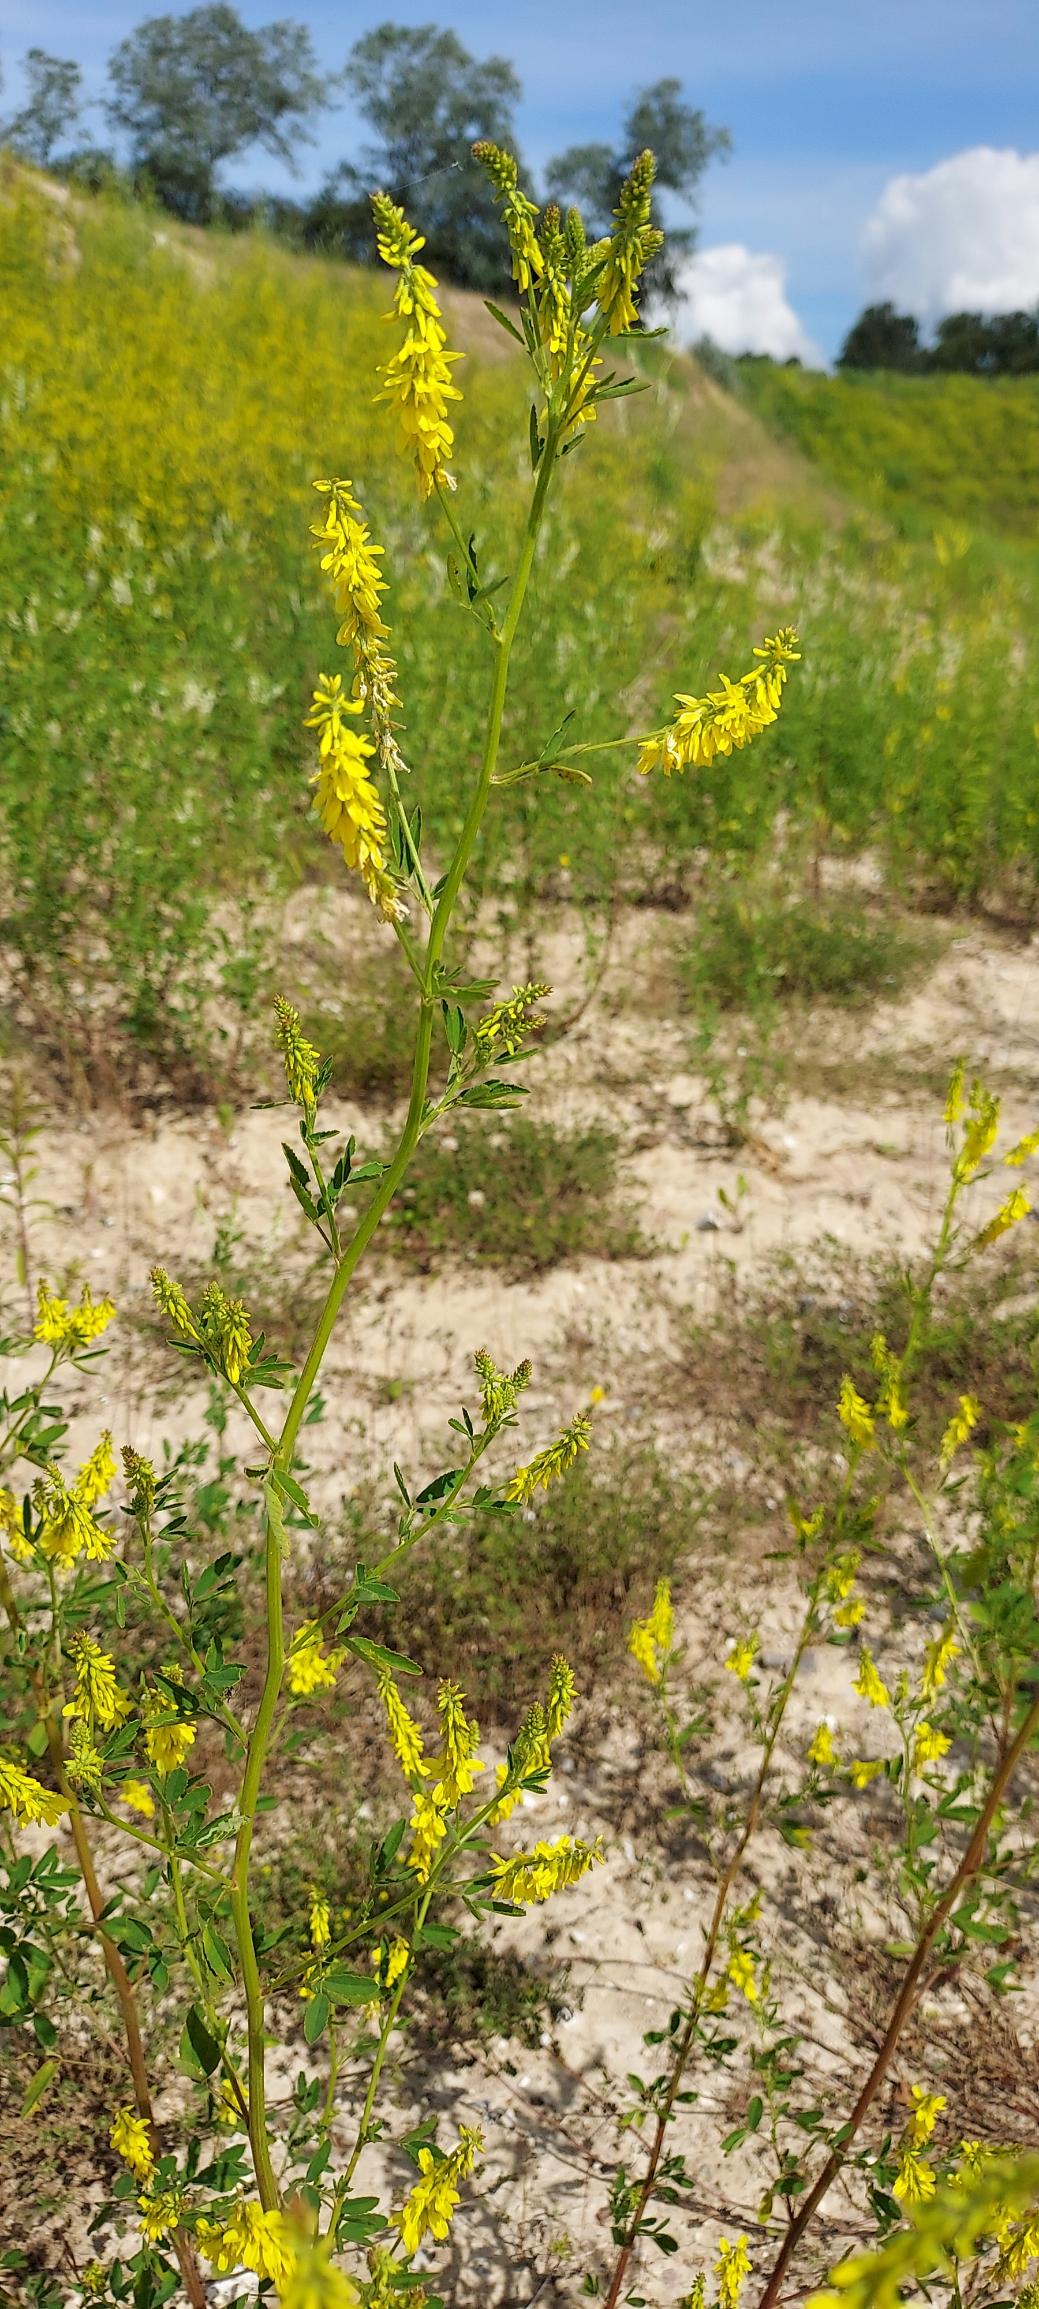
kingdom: Plantae
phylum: Tracheophyta
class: Magnoliopsida
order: Fabales
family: Fabaceae
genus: Melilotus
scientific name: Melilotus officinalis
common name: Mark-stenkløver
